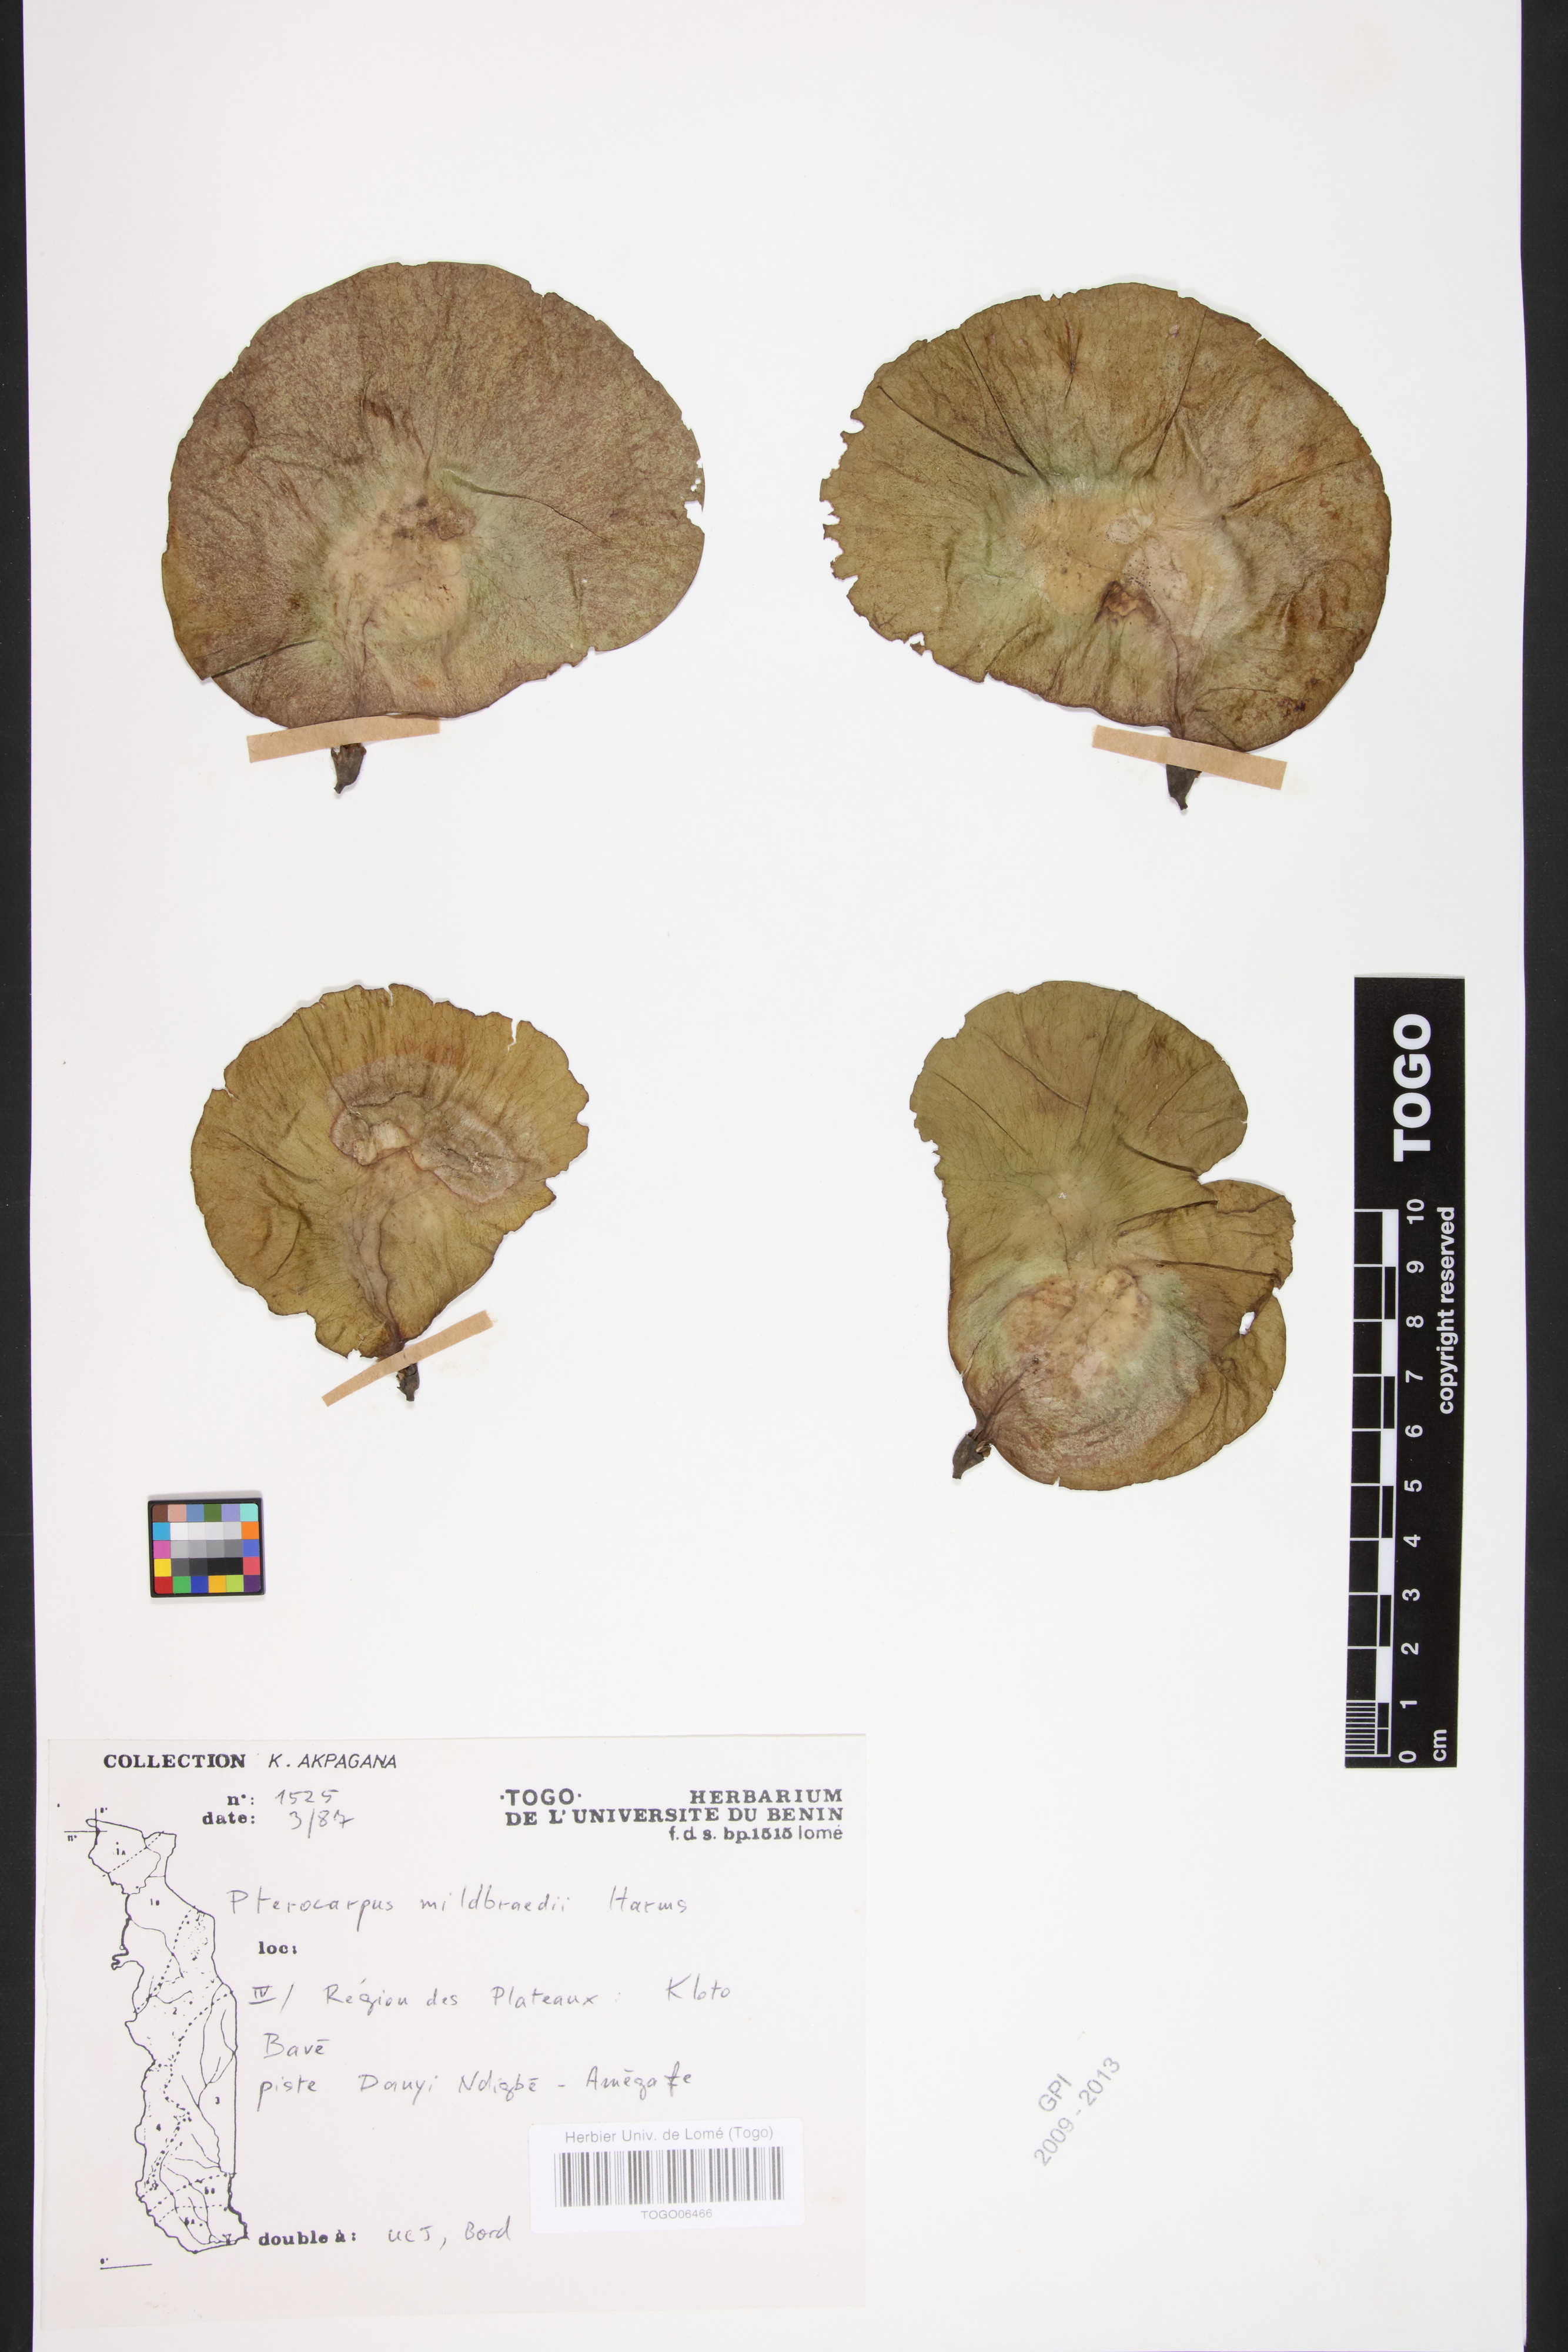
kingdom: Plantae
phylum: Tracheophyta
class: Magnoliopsida
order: Fabales
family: Fabaceae
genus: Pterocarpus
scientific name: Pterocarpus mildbraedii
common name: White padouk
